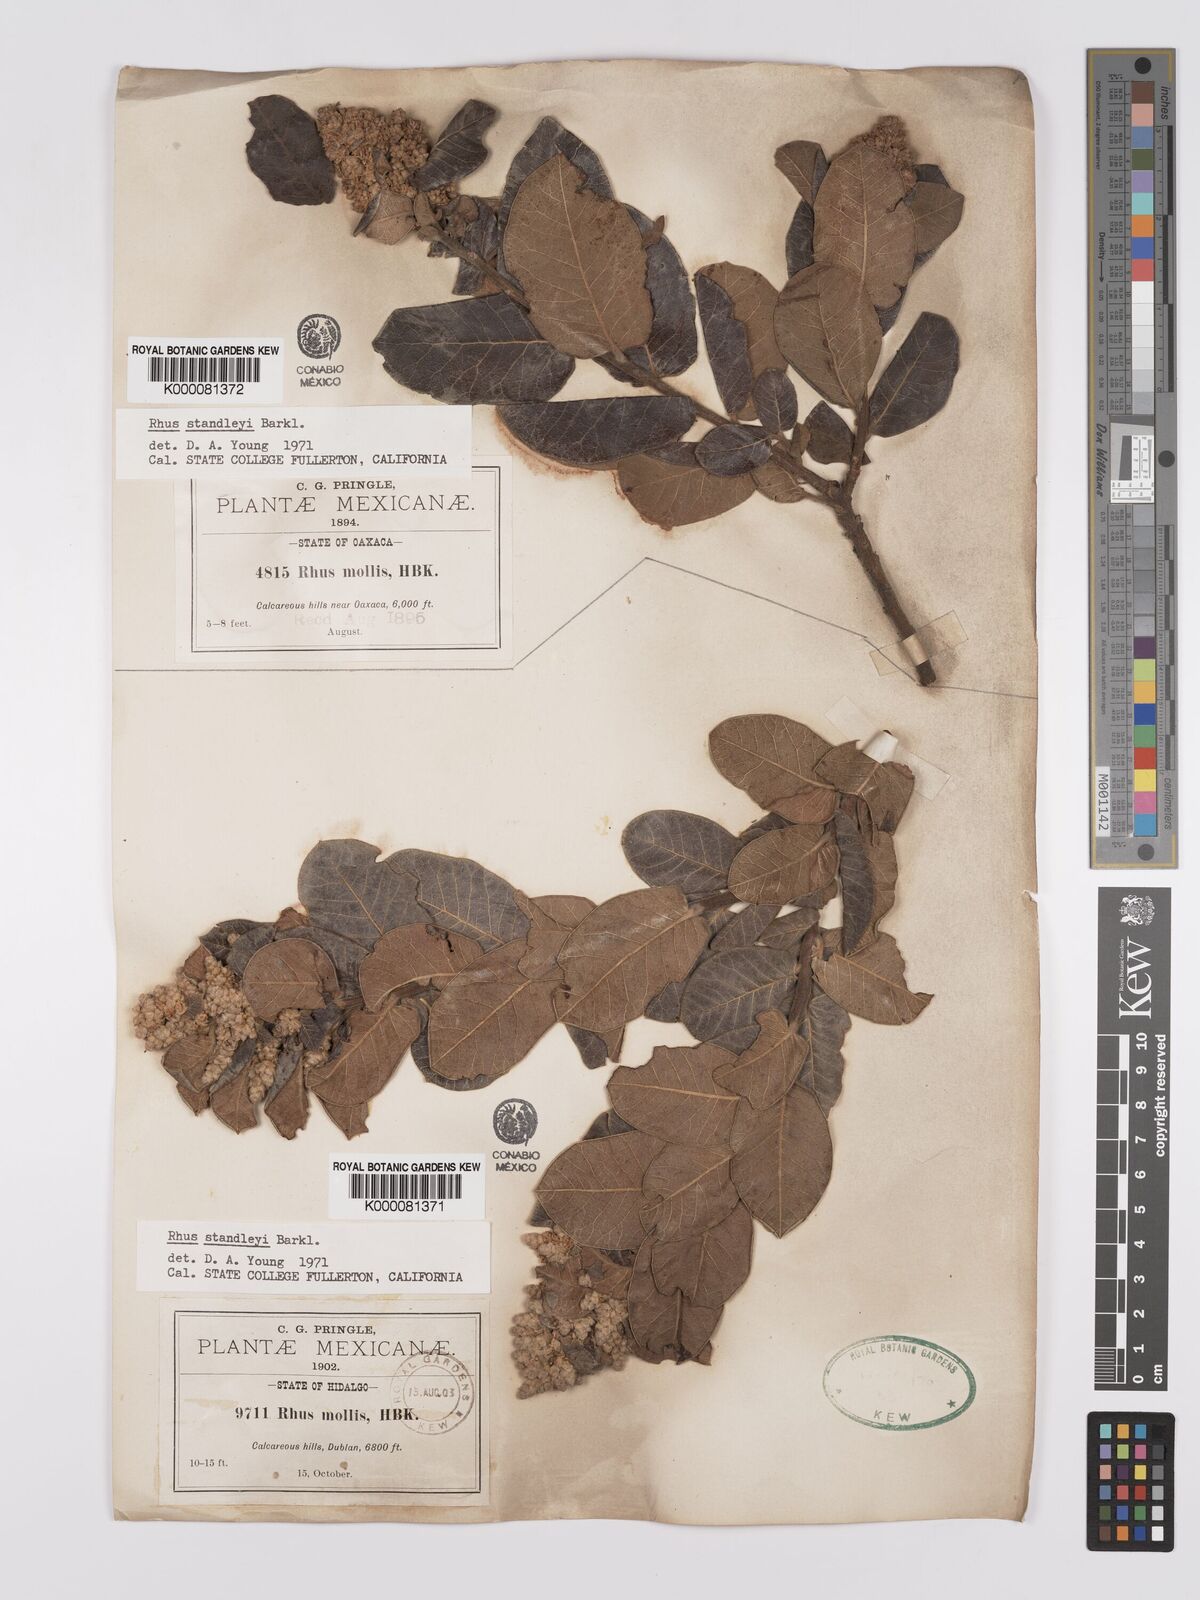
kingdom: Plantae
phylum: Tracheophyta
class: Magnoliopsida
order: Sapindales
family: Anacardiaceae
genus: Rhus
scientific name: Rhus standleyi
